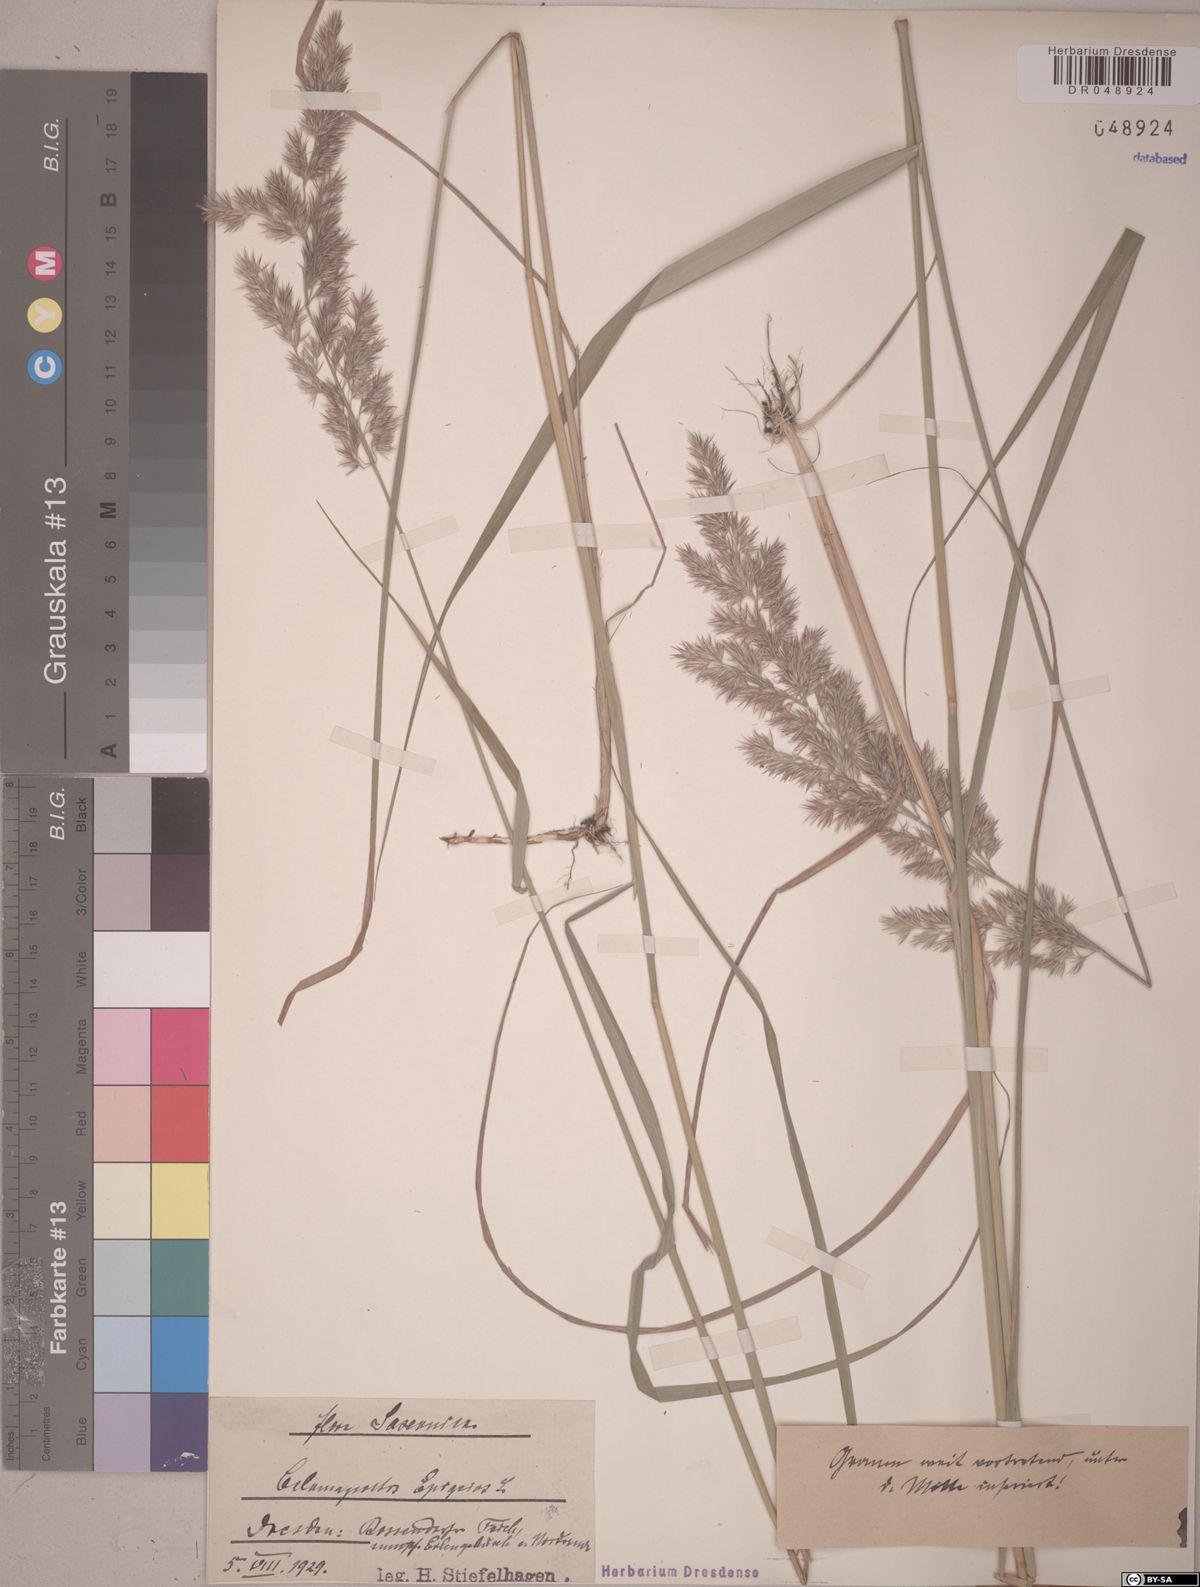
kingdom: Plantae
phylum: Tracheophyta
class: Liliopsida
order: Poales
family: Poaceae
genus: Calamagrostis
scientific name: Calamagrostis epigejos
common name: Wood small-reed
